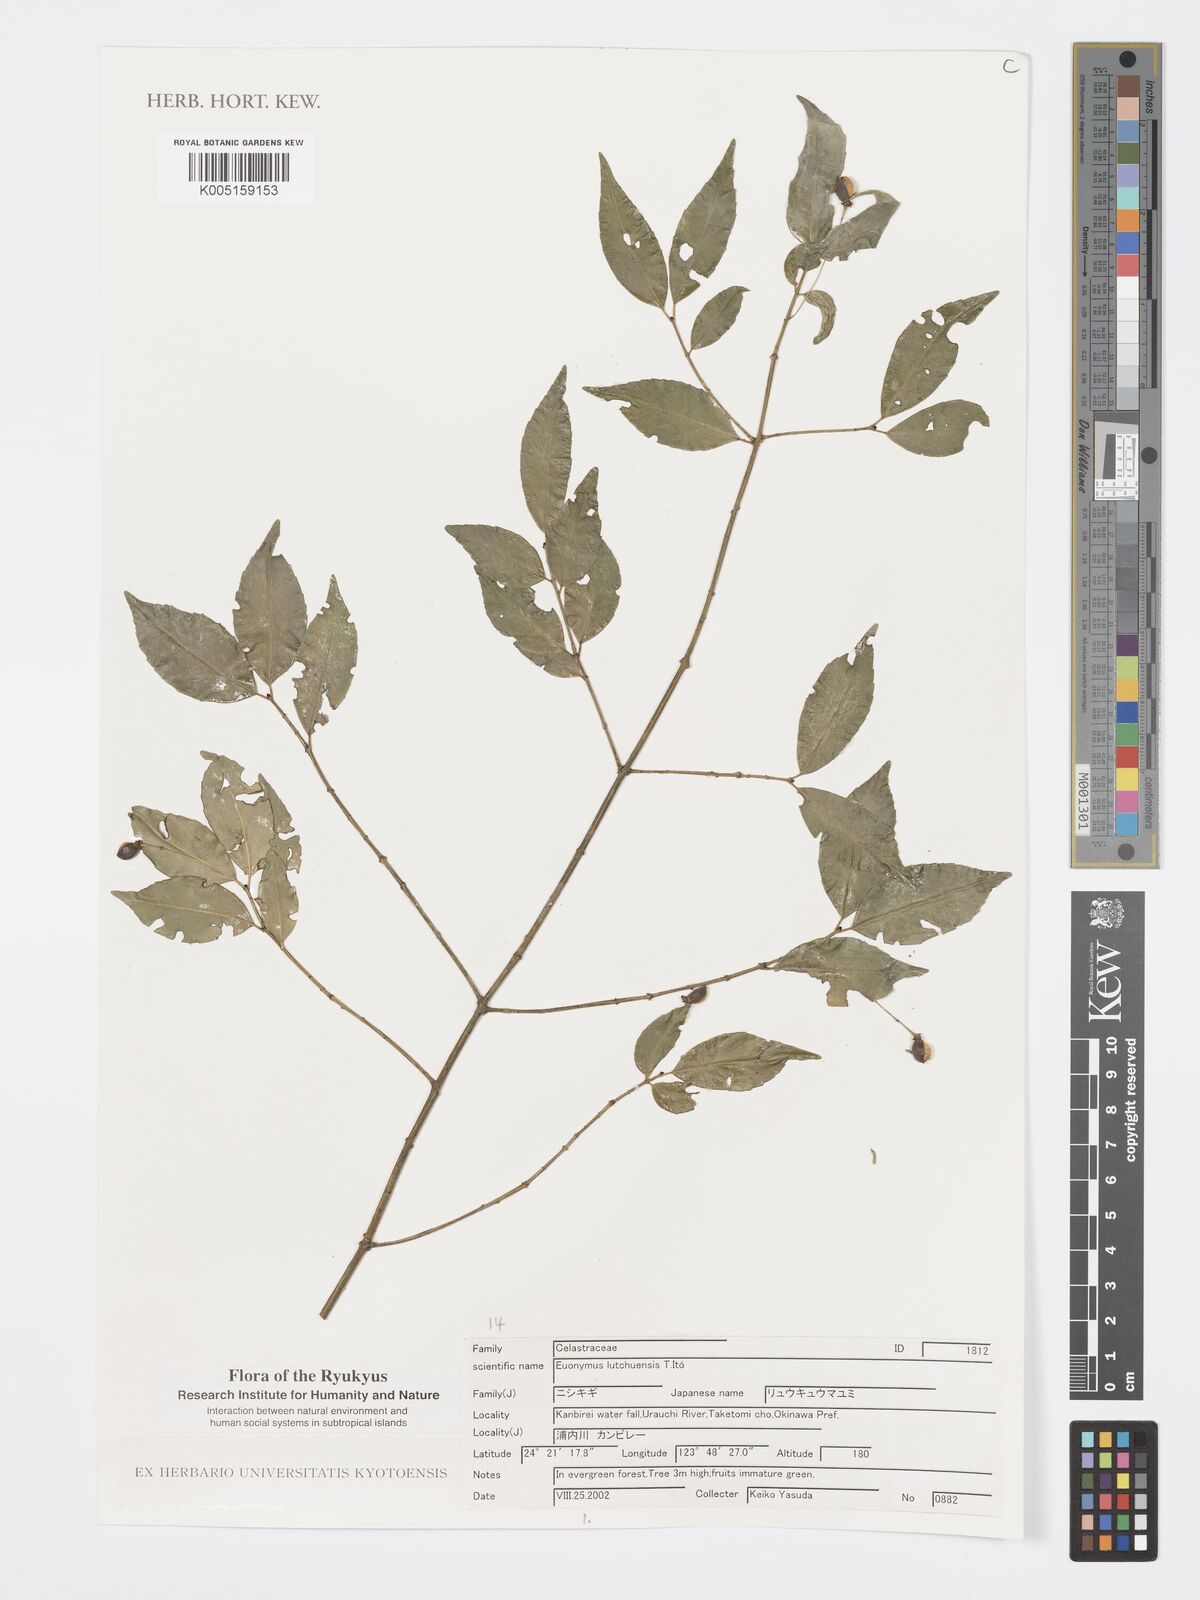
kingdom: Plantae
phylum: Tracheophyta
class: Magnoliopsida
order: Celastrales
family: Celastraceae
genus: Euonymus
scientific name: Euonymus lutchuensis
